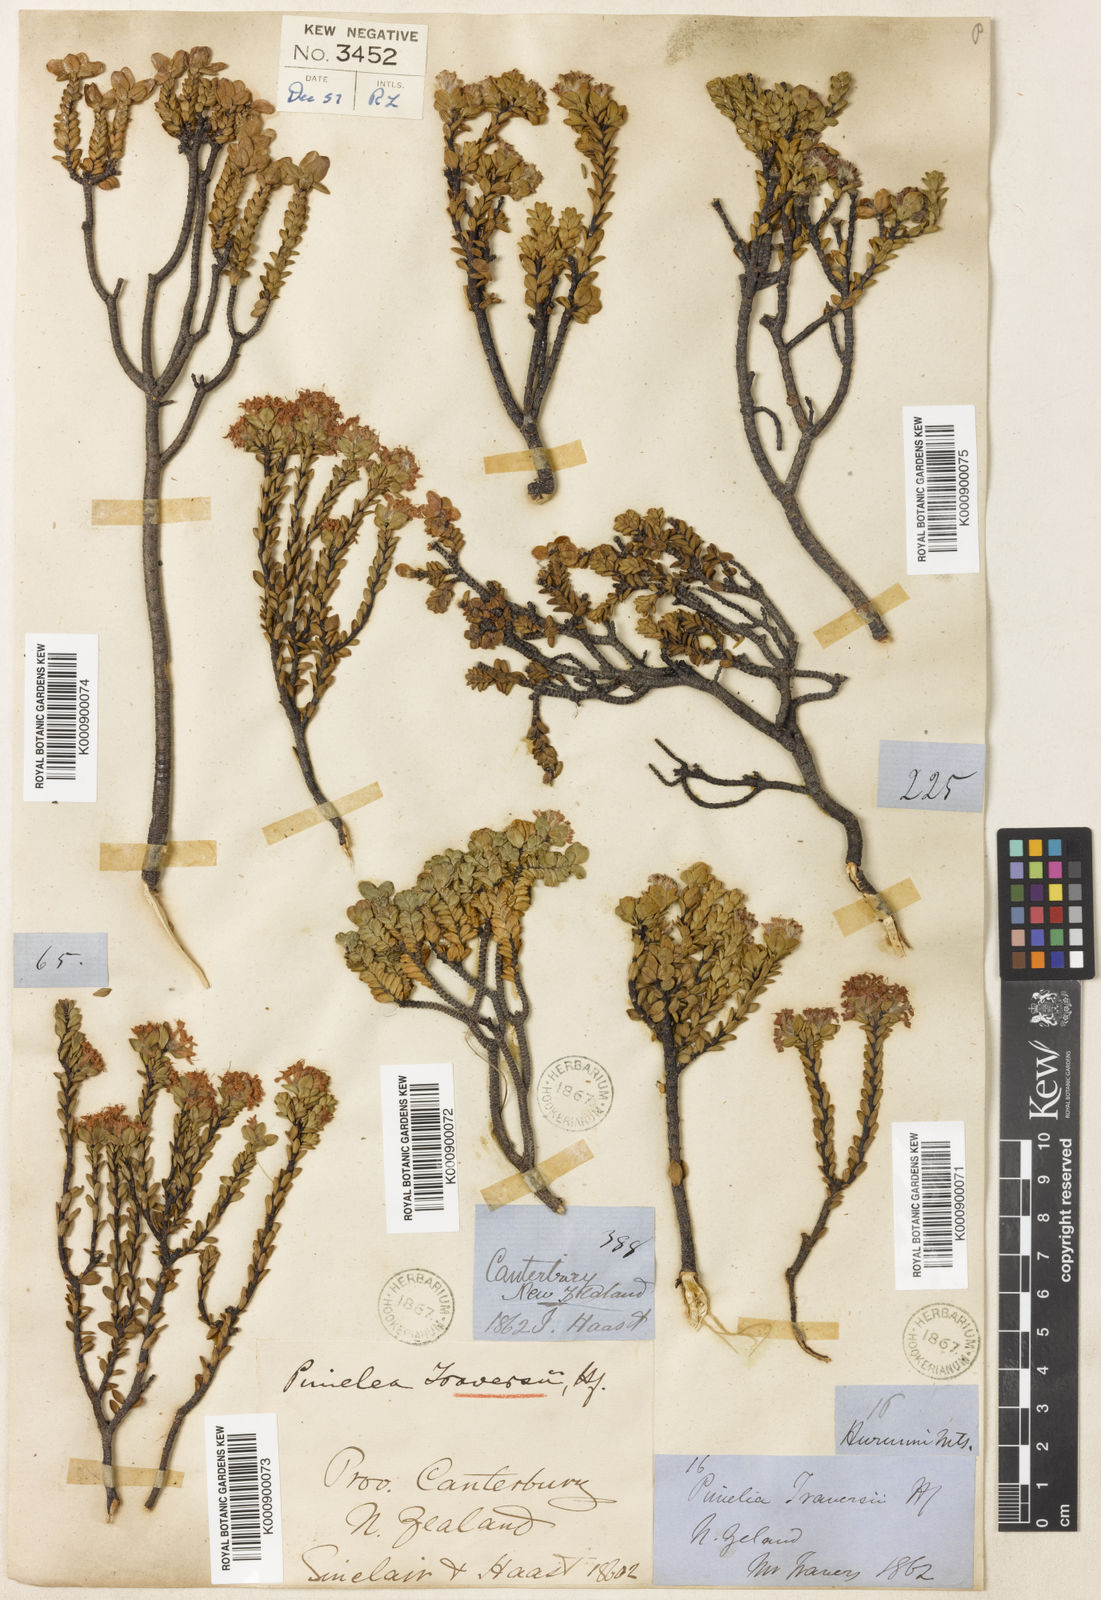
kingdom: Plantae
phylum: Tracheophyta
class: Magnoliopsida
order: Malvales
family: Thymelaeaceae
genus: Pimelea
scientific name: Pimelea traversii
